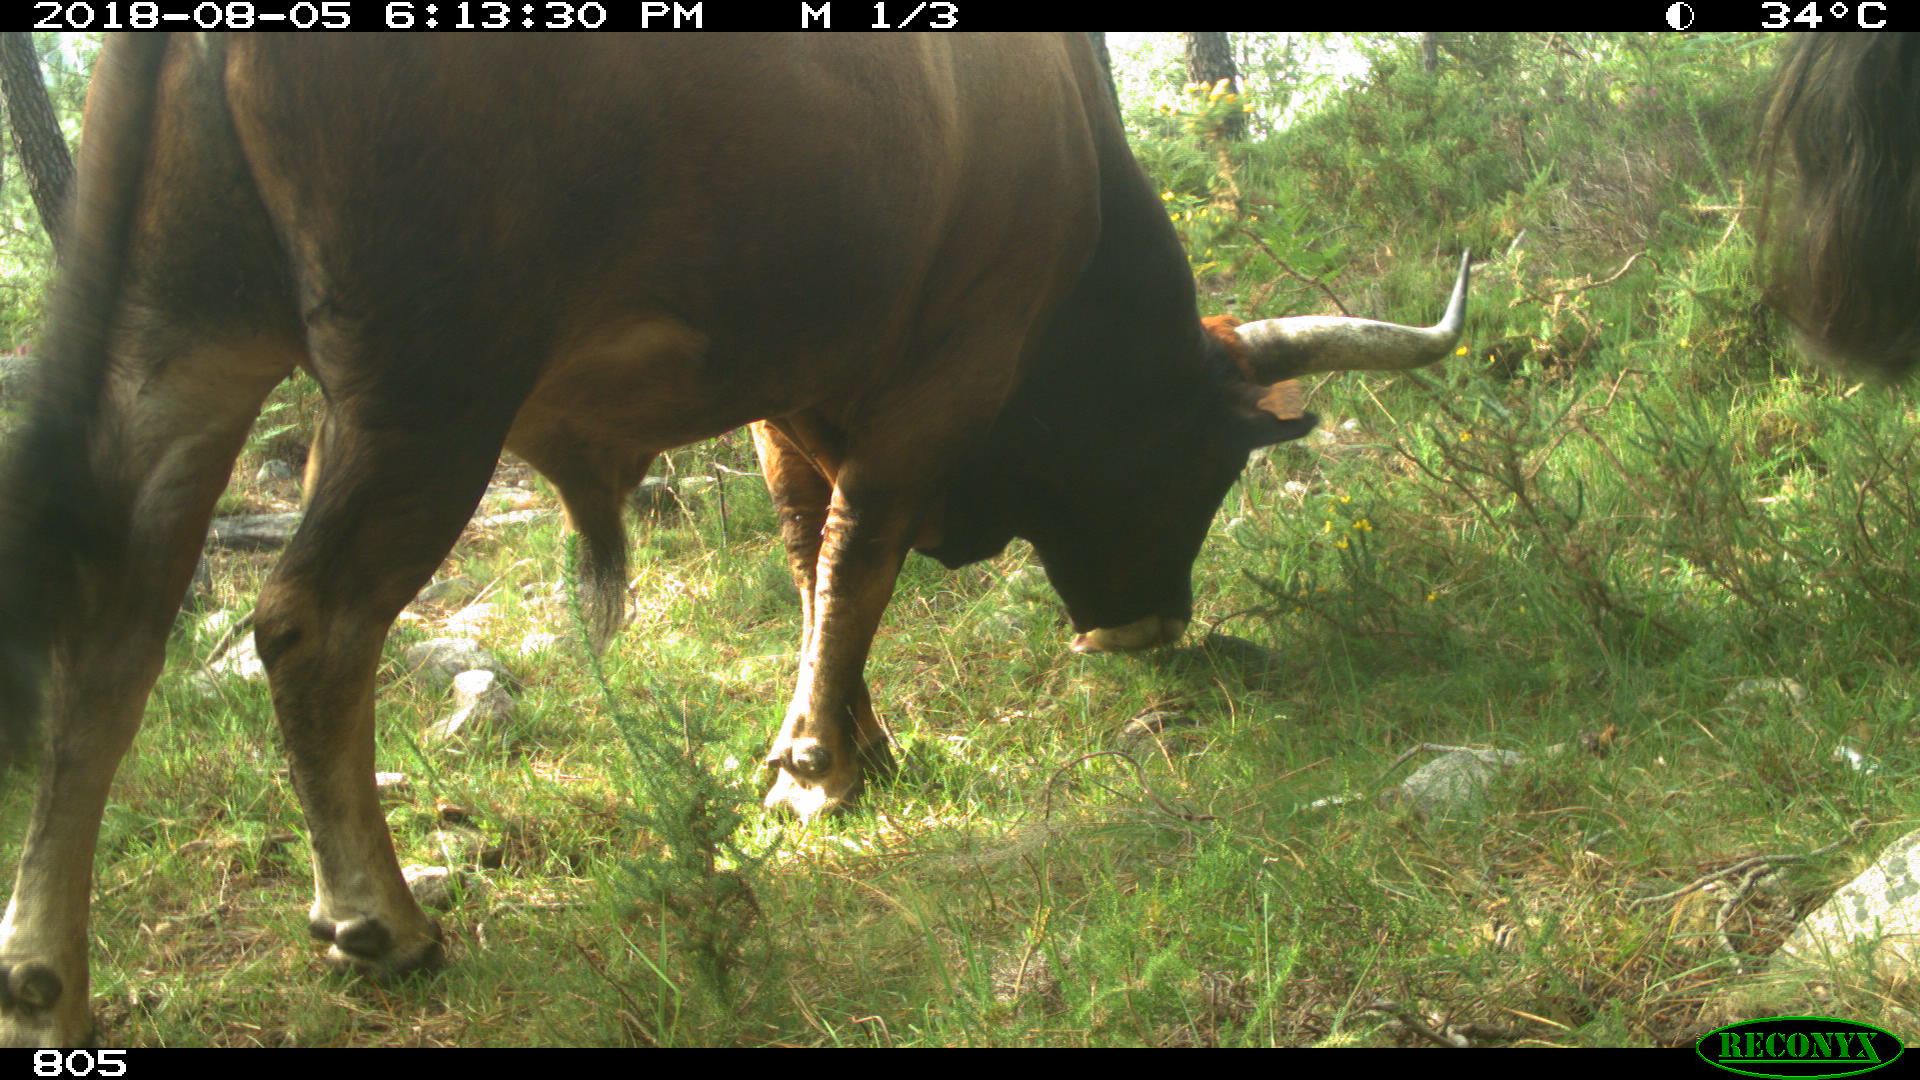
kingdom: Animalia
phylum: Chordata
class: Mammalia
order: Artiodactyla
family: Bovidae
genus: Bos
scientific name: Bos taurus
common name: Domesticated cattle
